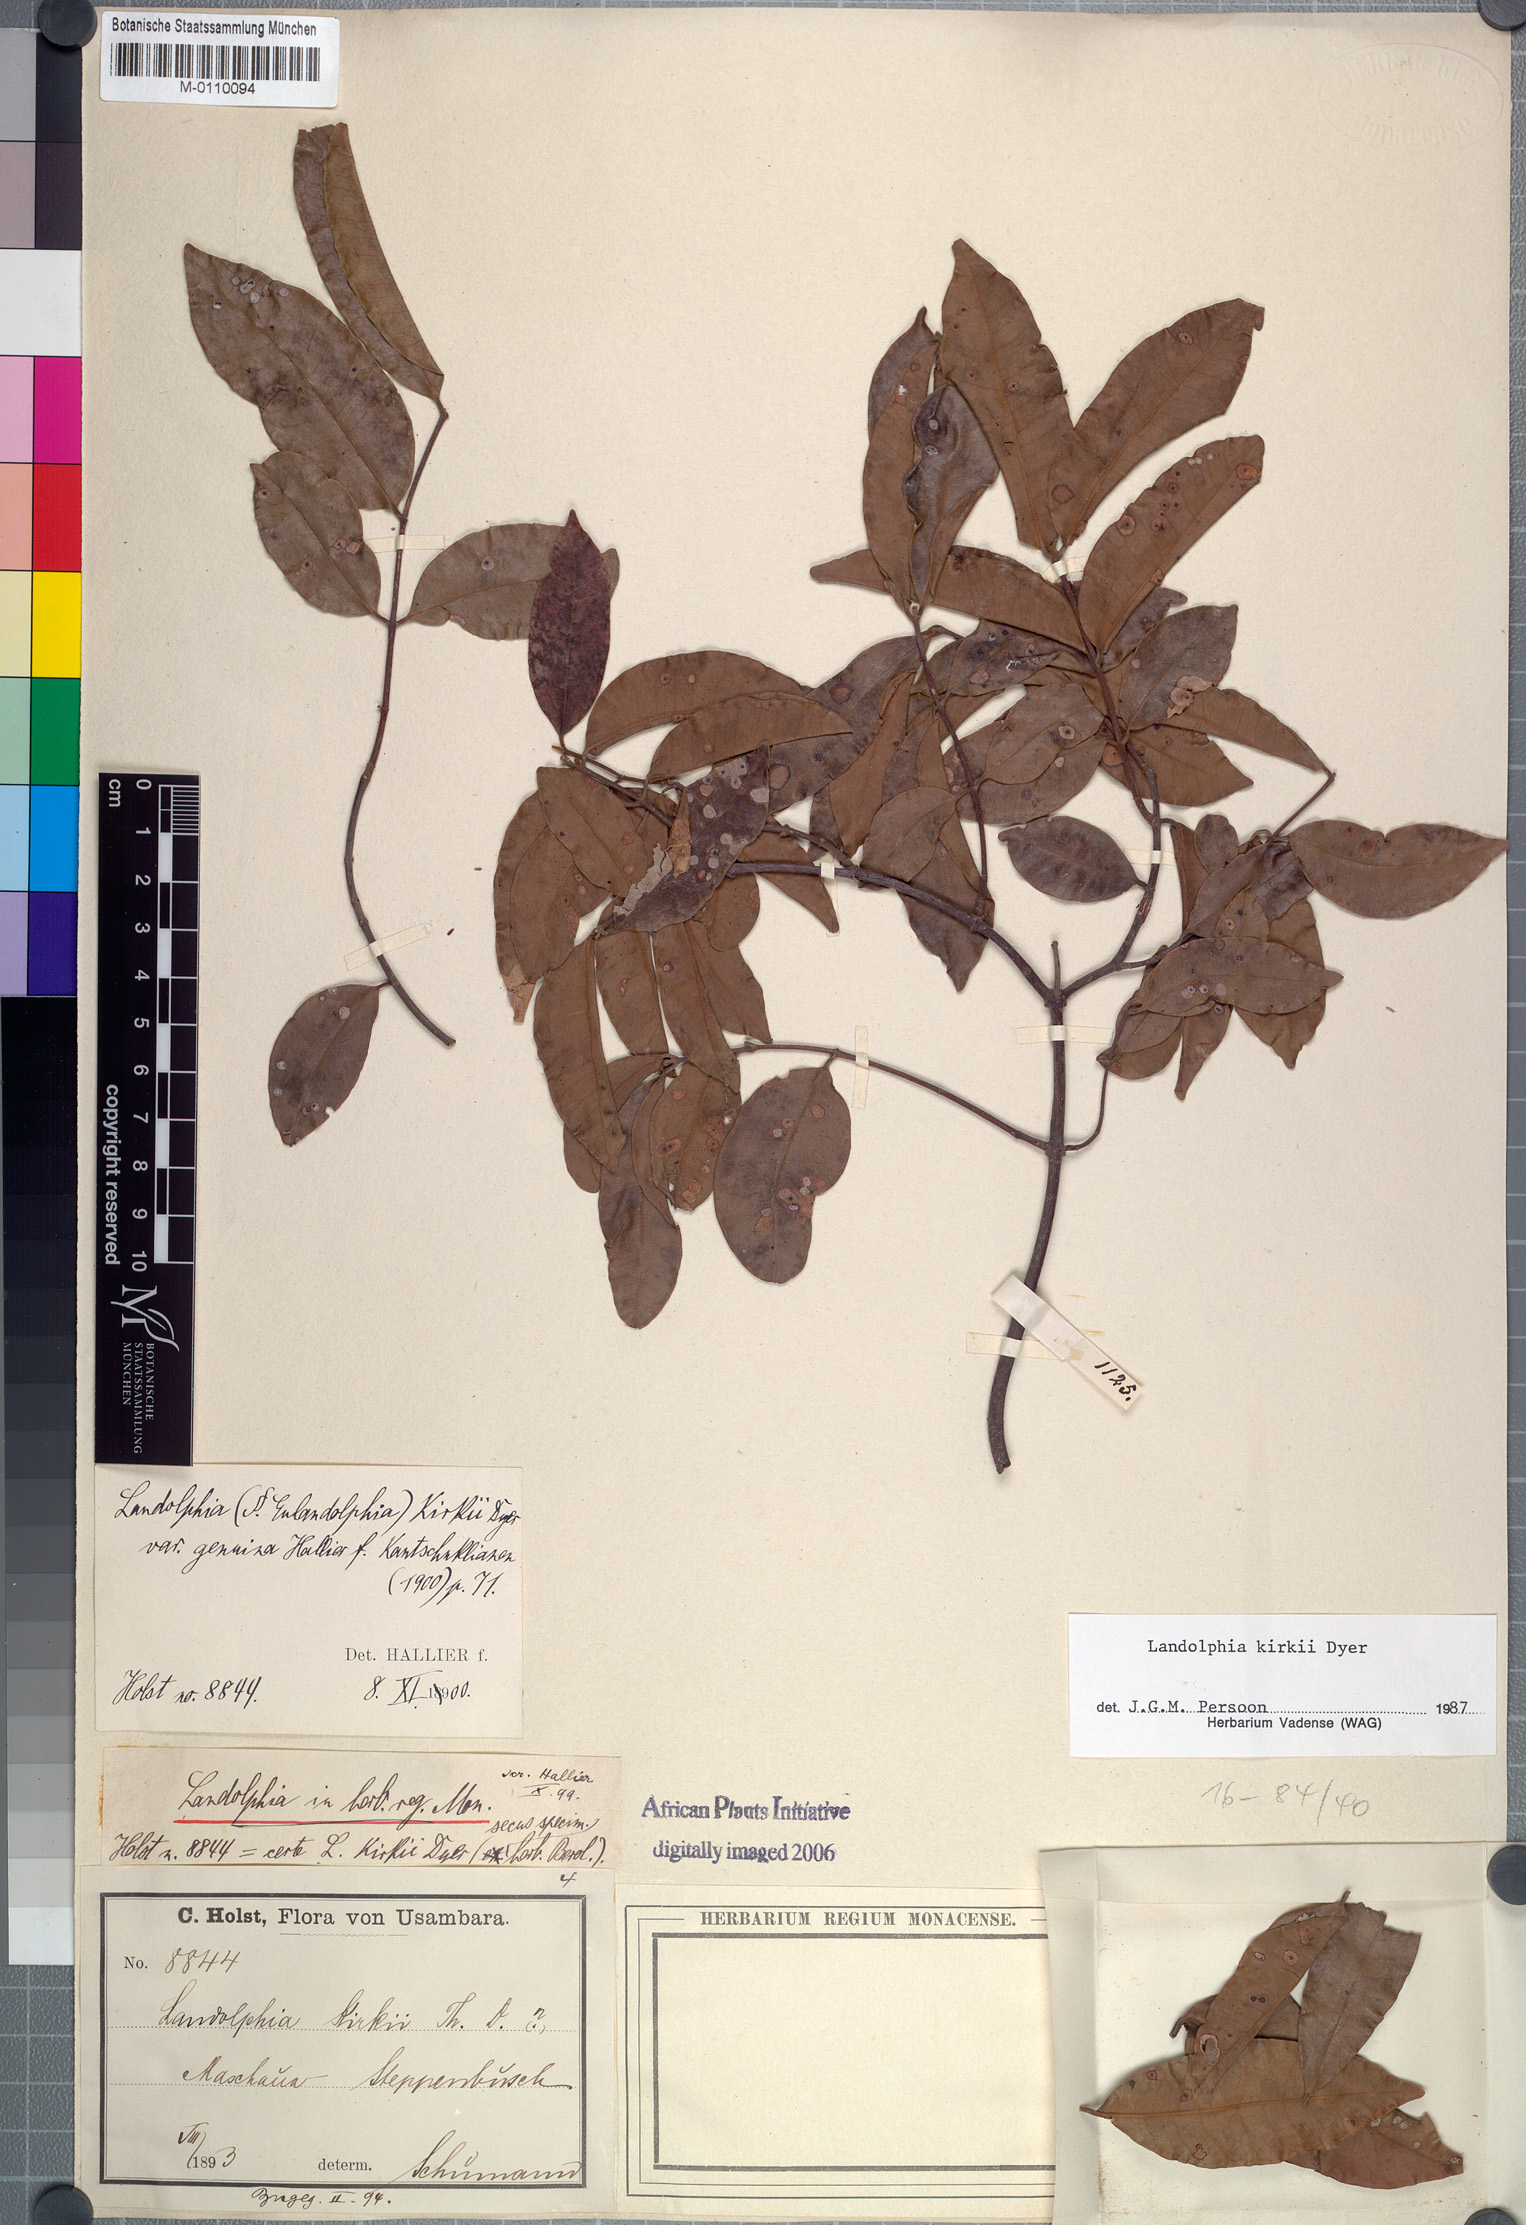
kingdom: Plantae
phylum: Tracheophyta
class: Magnoliopsida
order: Gentianales
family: Apocynaceae
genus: Landolphia
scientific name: Landolphia kirkii
